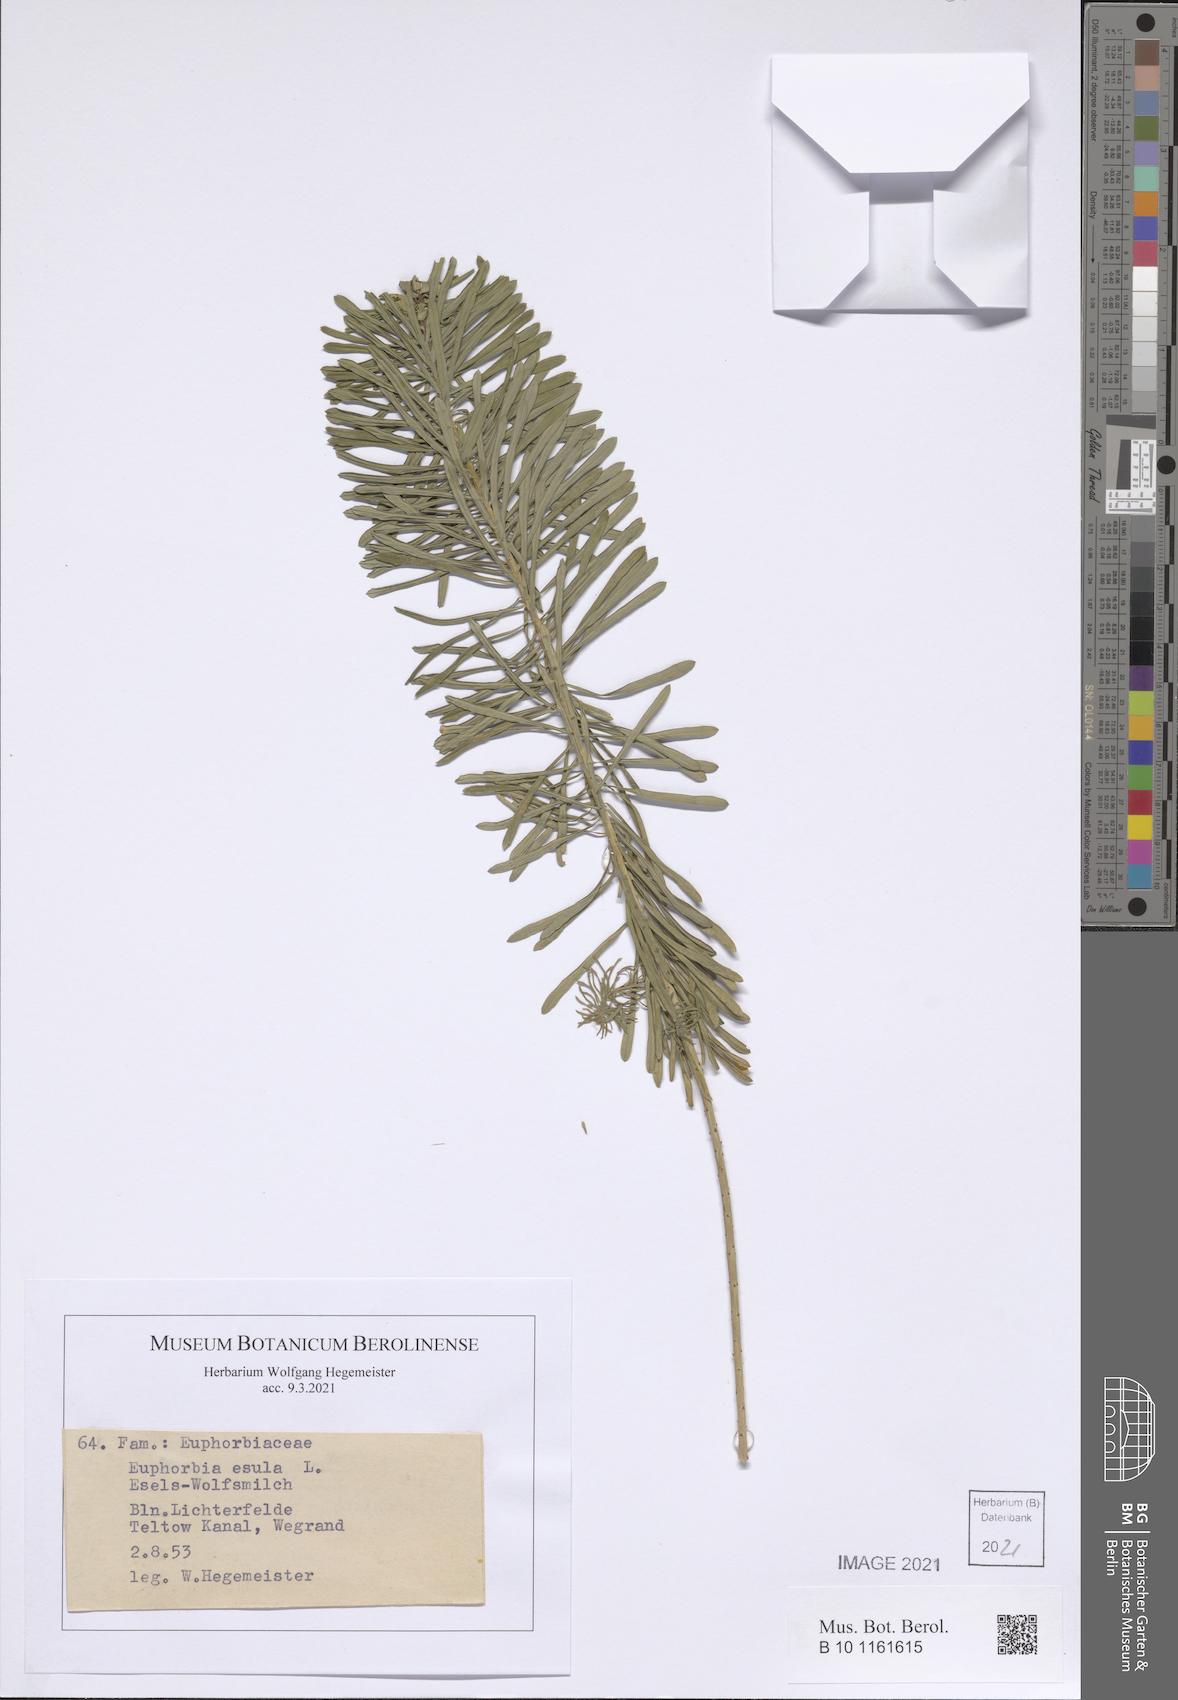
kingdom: Plantae
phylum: Tracheophyta
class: Magnoliopsida
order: Malpighiales
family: Euphorbiaceae
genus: Euphorbia
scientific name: Euphorbia esula
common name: Leafy spurge
